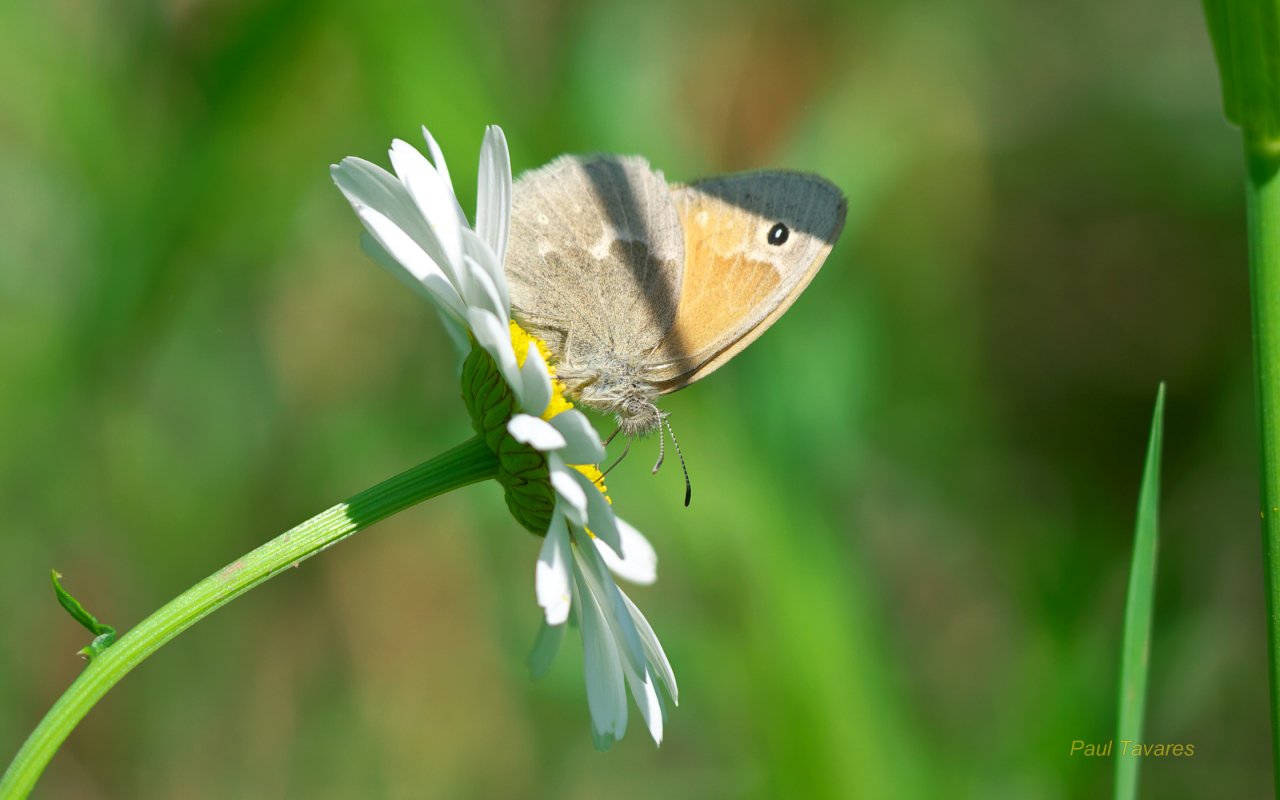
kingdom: Animalia
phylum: Arthropoda
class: Insecta
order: Lepidoptera
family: Nymphalidae
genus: Coenonympha
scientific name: Coenonympha tullia
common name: Large Heath
